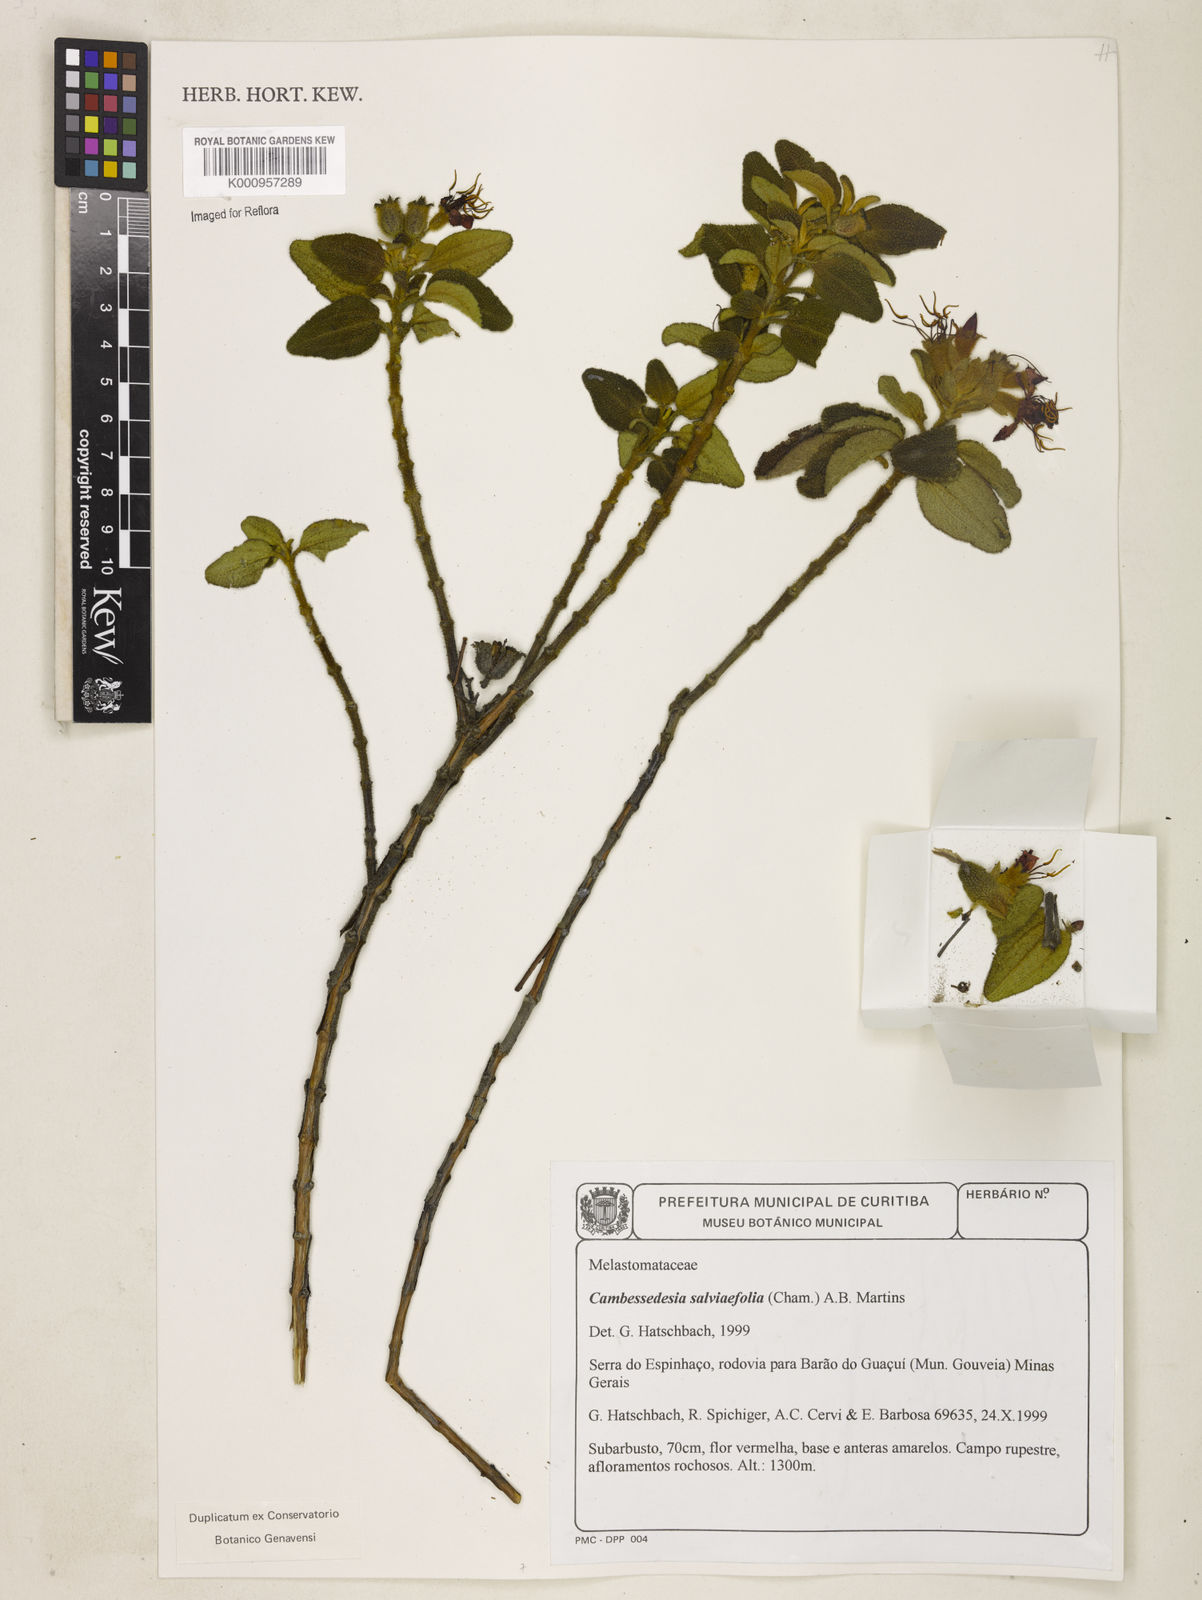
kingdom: Plantae
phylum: Tracheophyta
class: Magnoliopsida
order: Myrtales
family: Melastomataceae
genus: Cambessedesia
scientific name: Cambessedesia
